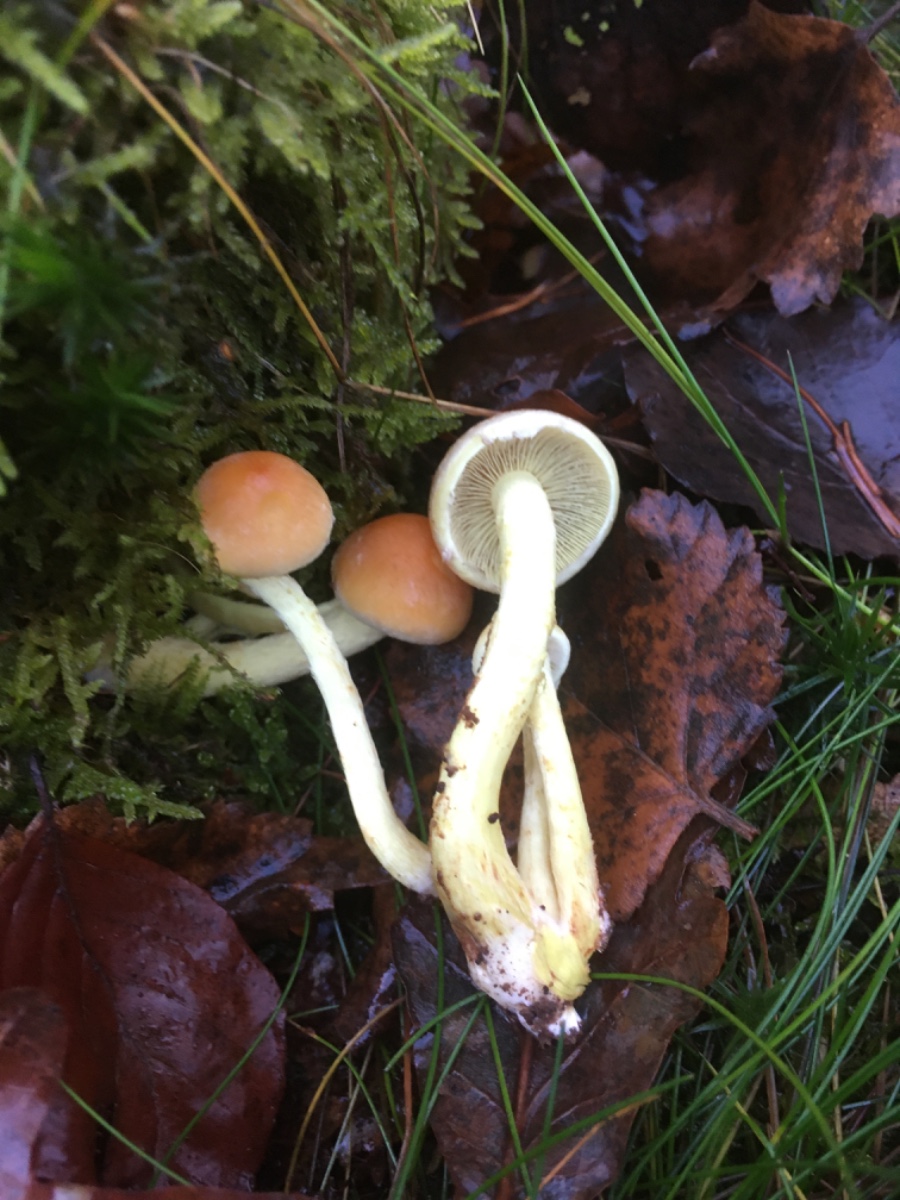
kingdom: Fungi
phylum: Basidiomycota
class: Agaricomycetes
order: Agaricales
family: Strophariaceae
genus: Hypholoma
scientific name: Hypholoma fasciculare
